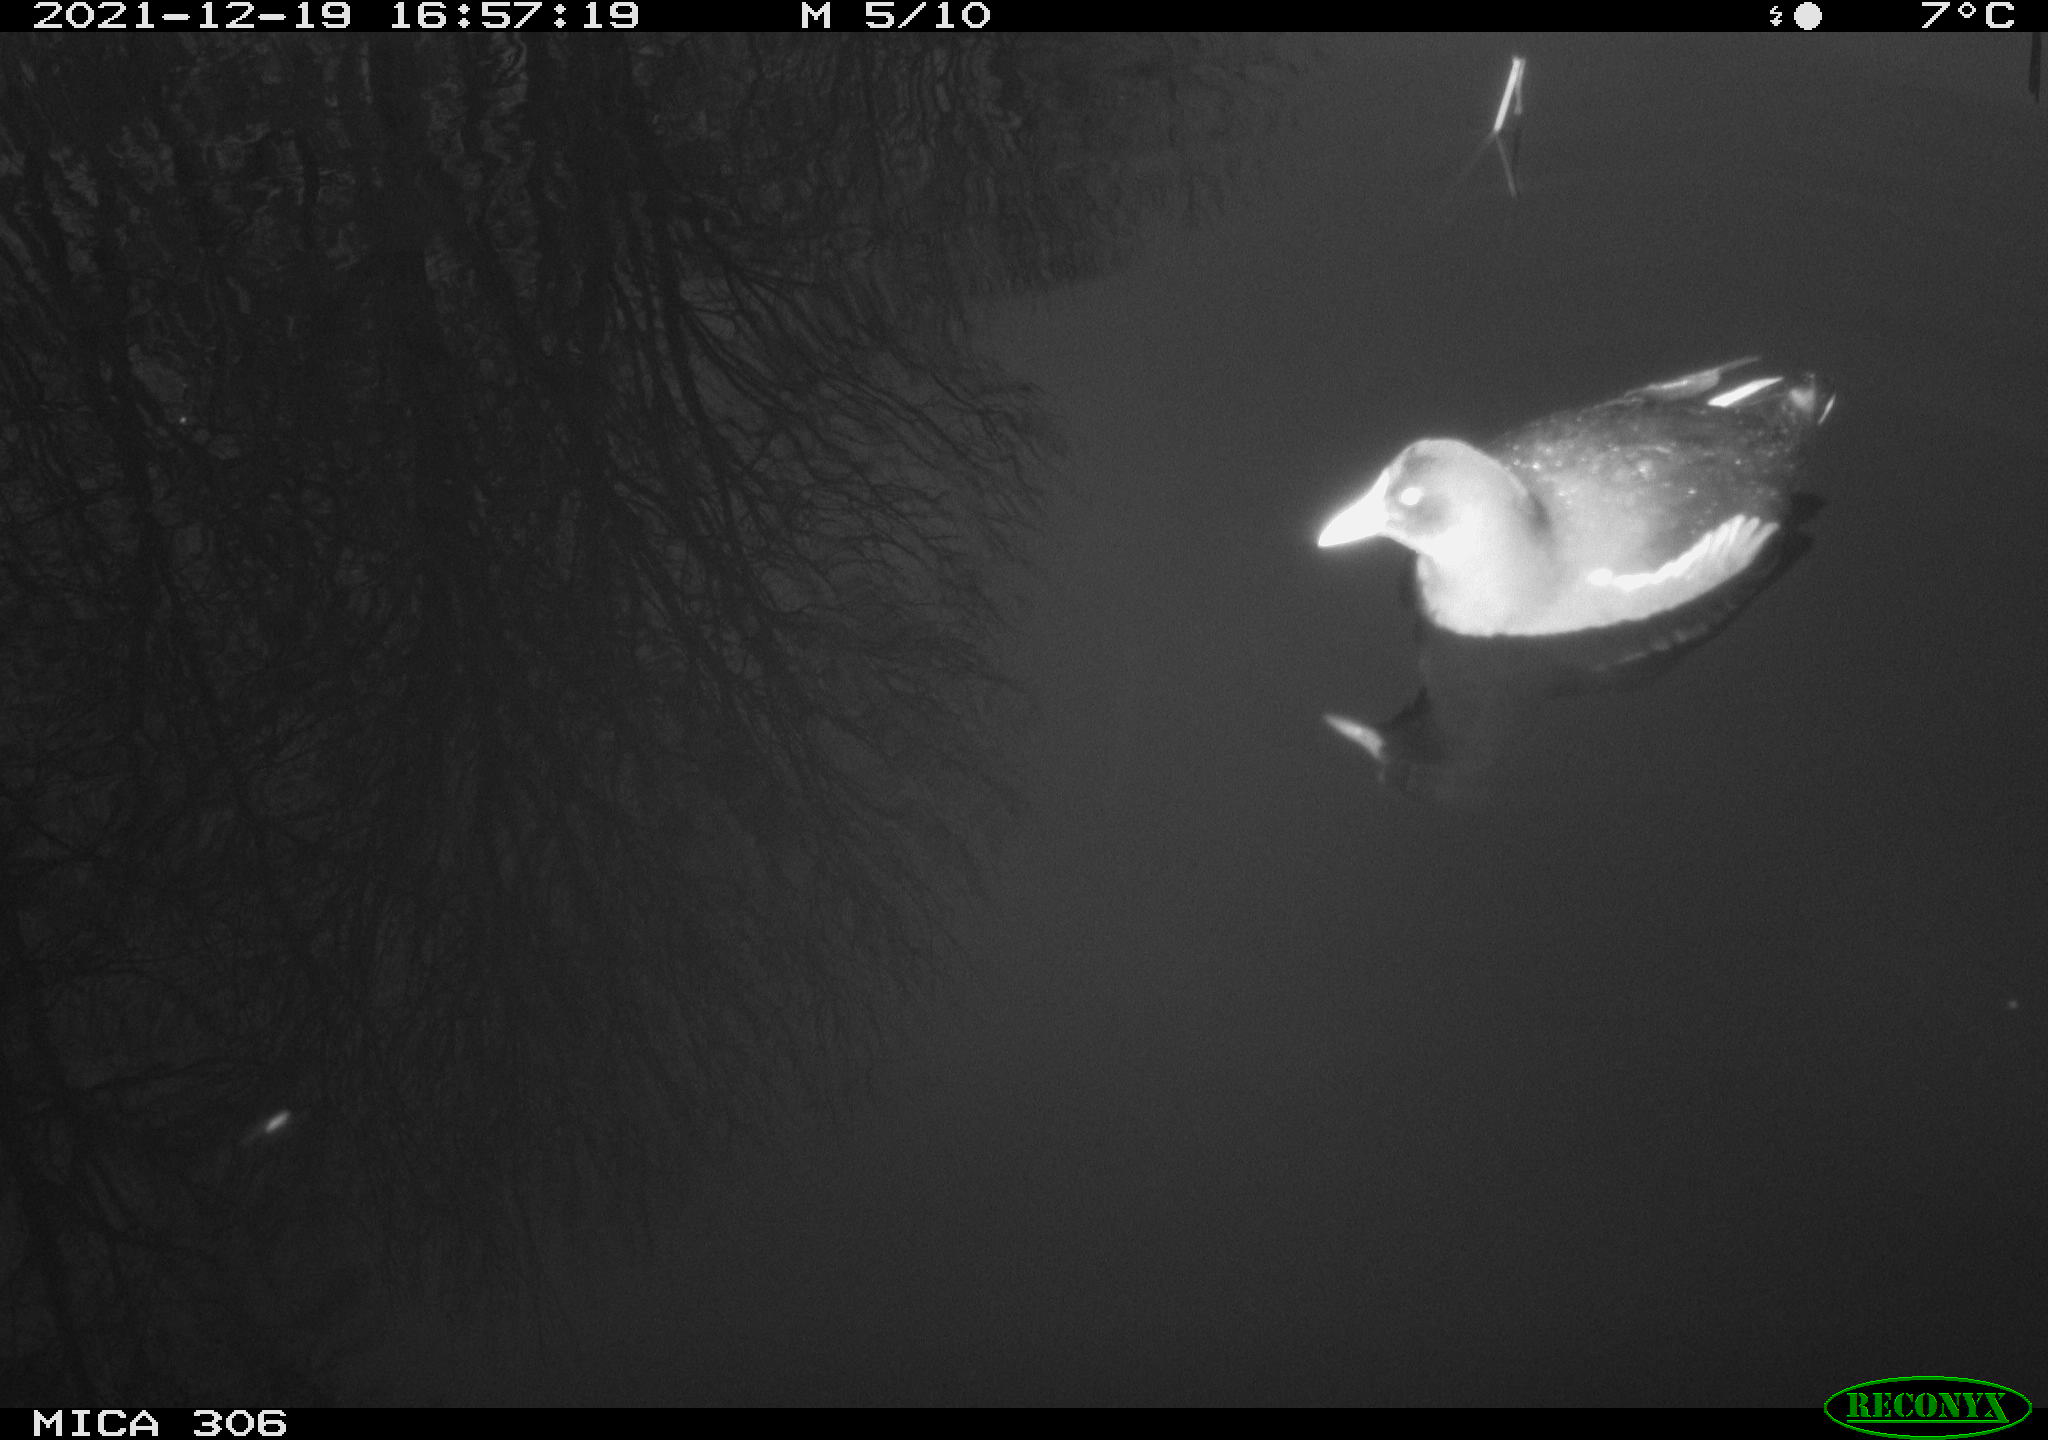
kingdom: Animalia
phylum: Chordata
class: Aves
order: Gruiformes
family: Rallidae
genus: Gallinula
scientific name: Gallinula chloropus
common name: Common moorhen
